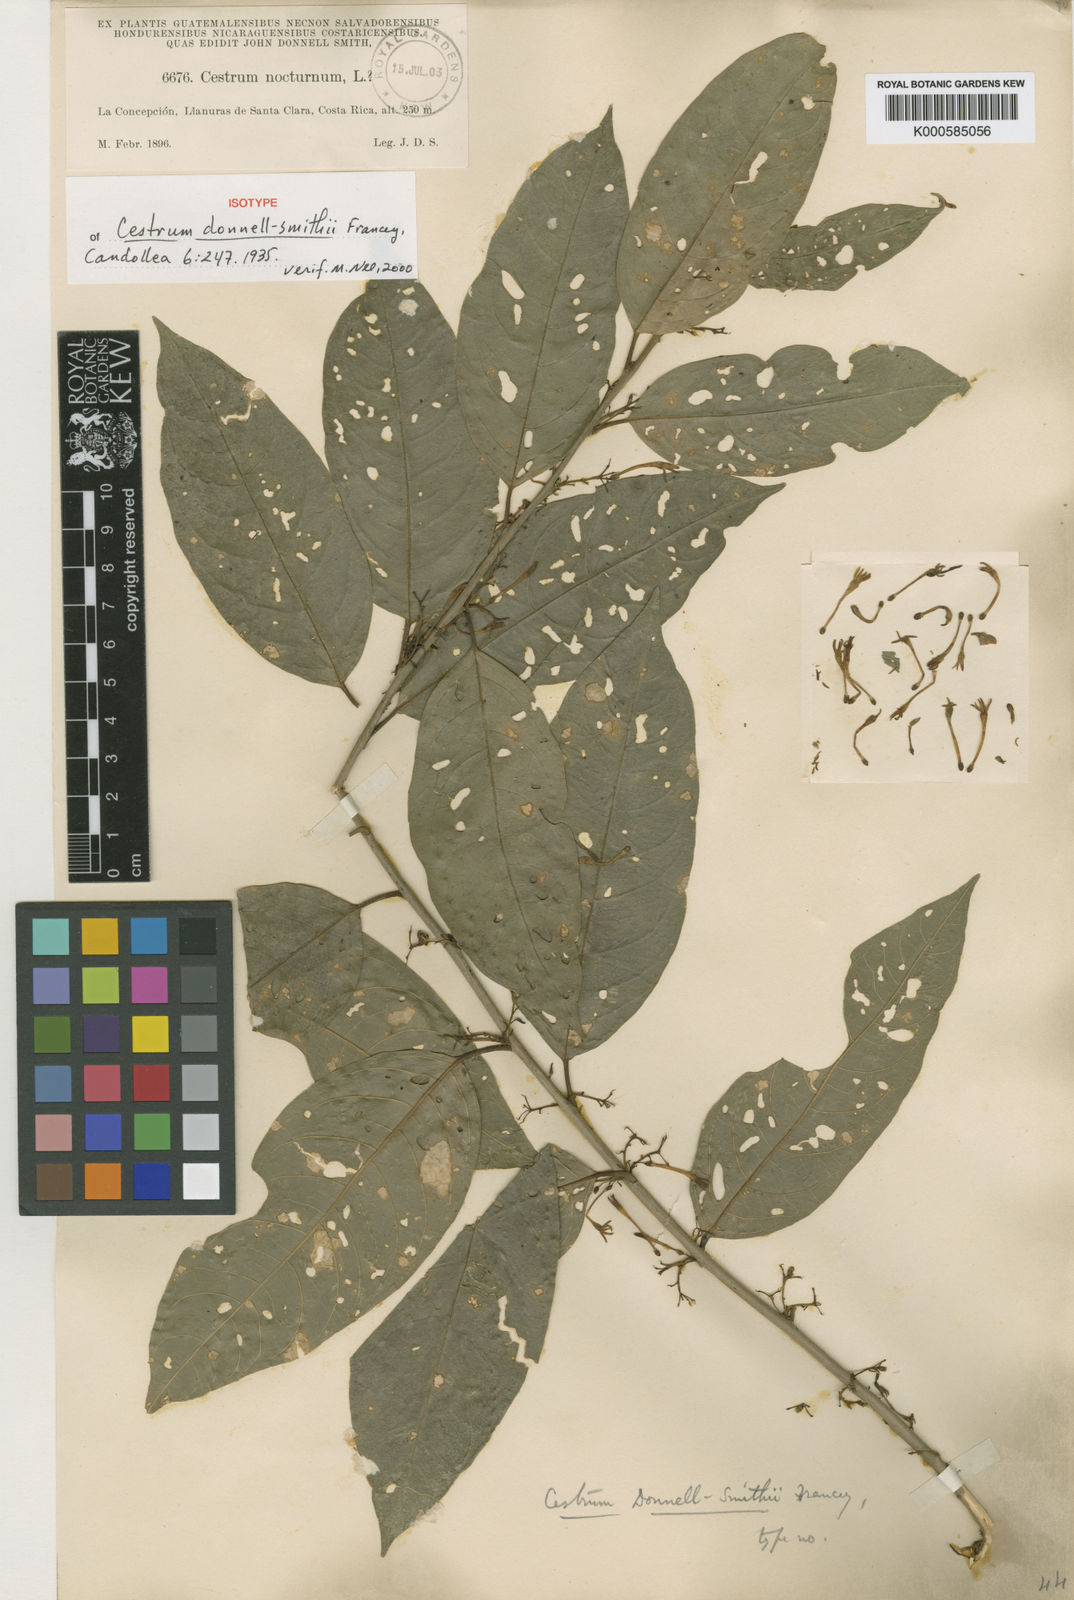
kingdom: Plantae
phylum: Tracheophyta
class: Magnoliopsida
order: Solanales
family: Solanaceae
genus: Cestrum
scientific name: Cestrum microcalyx
